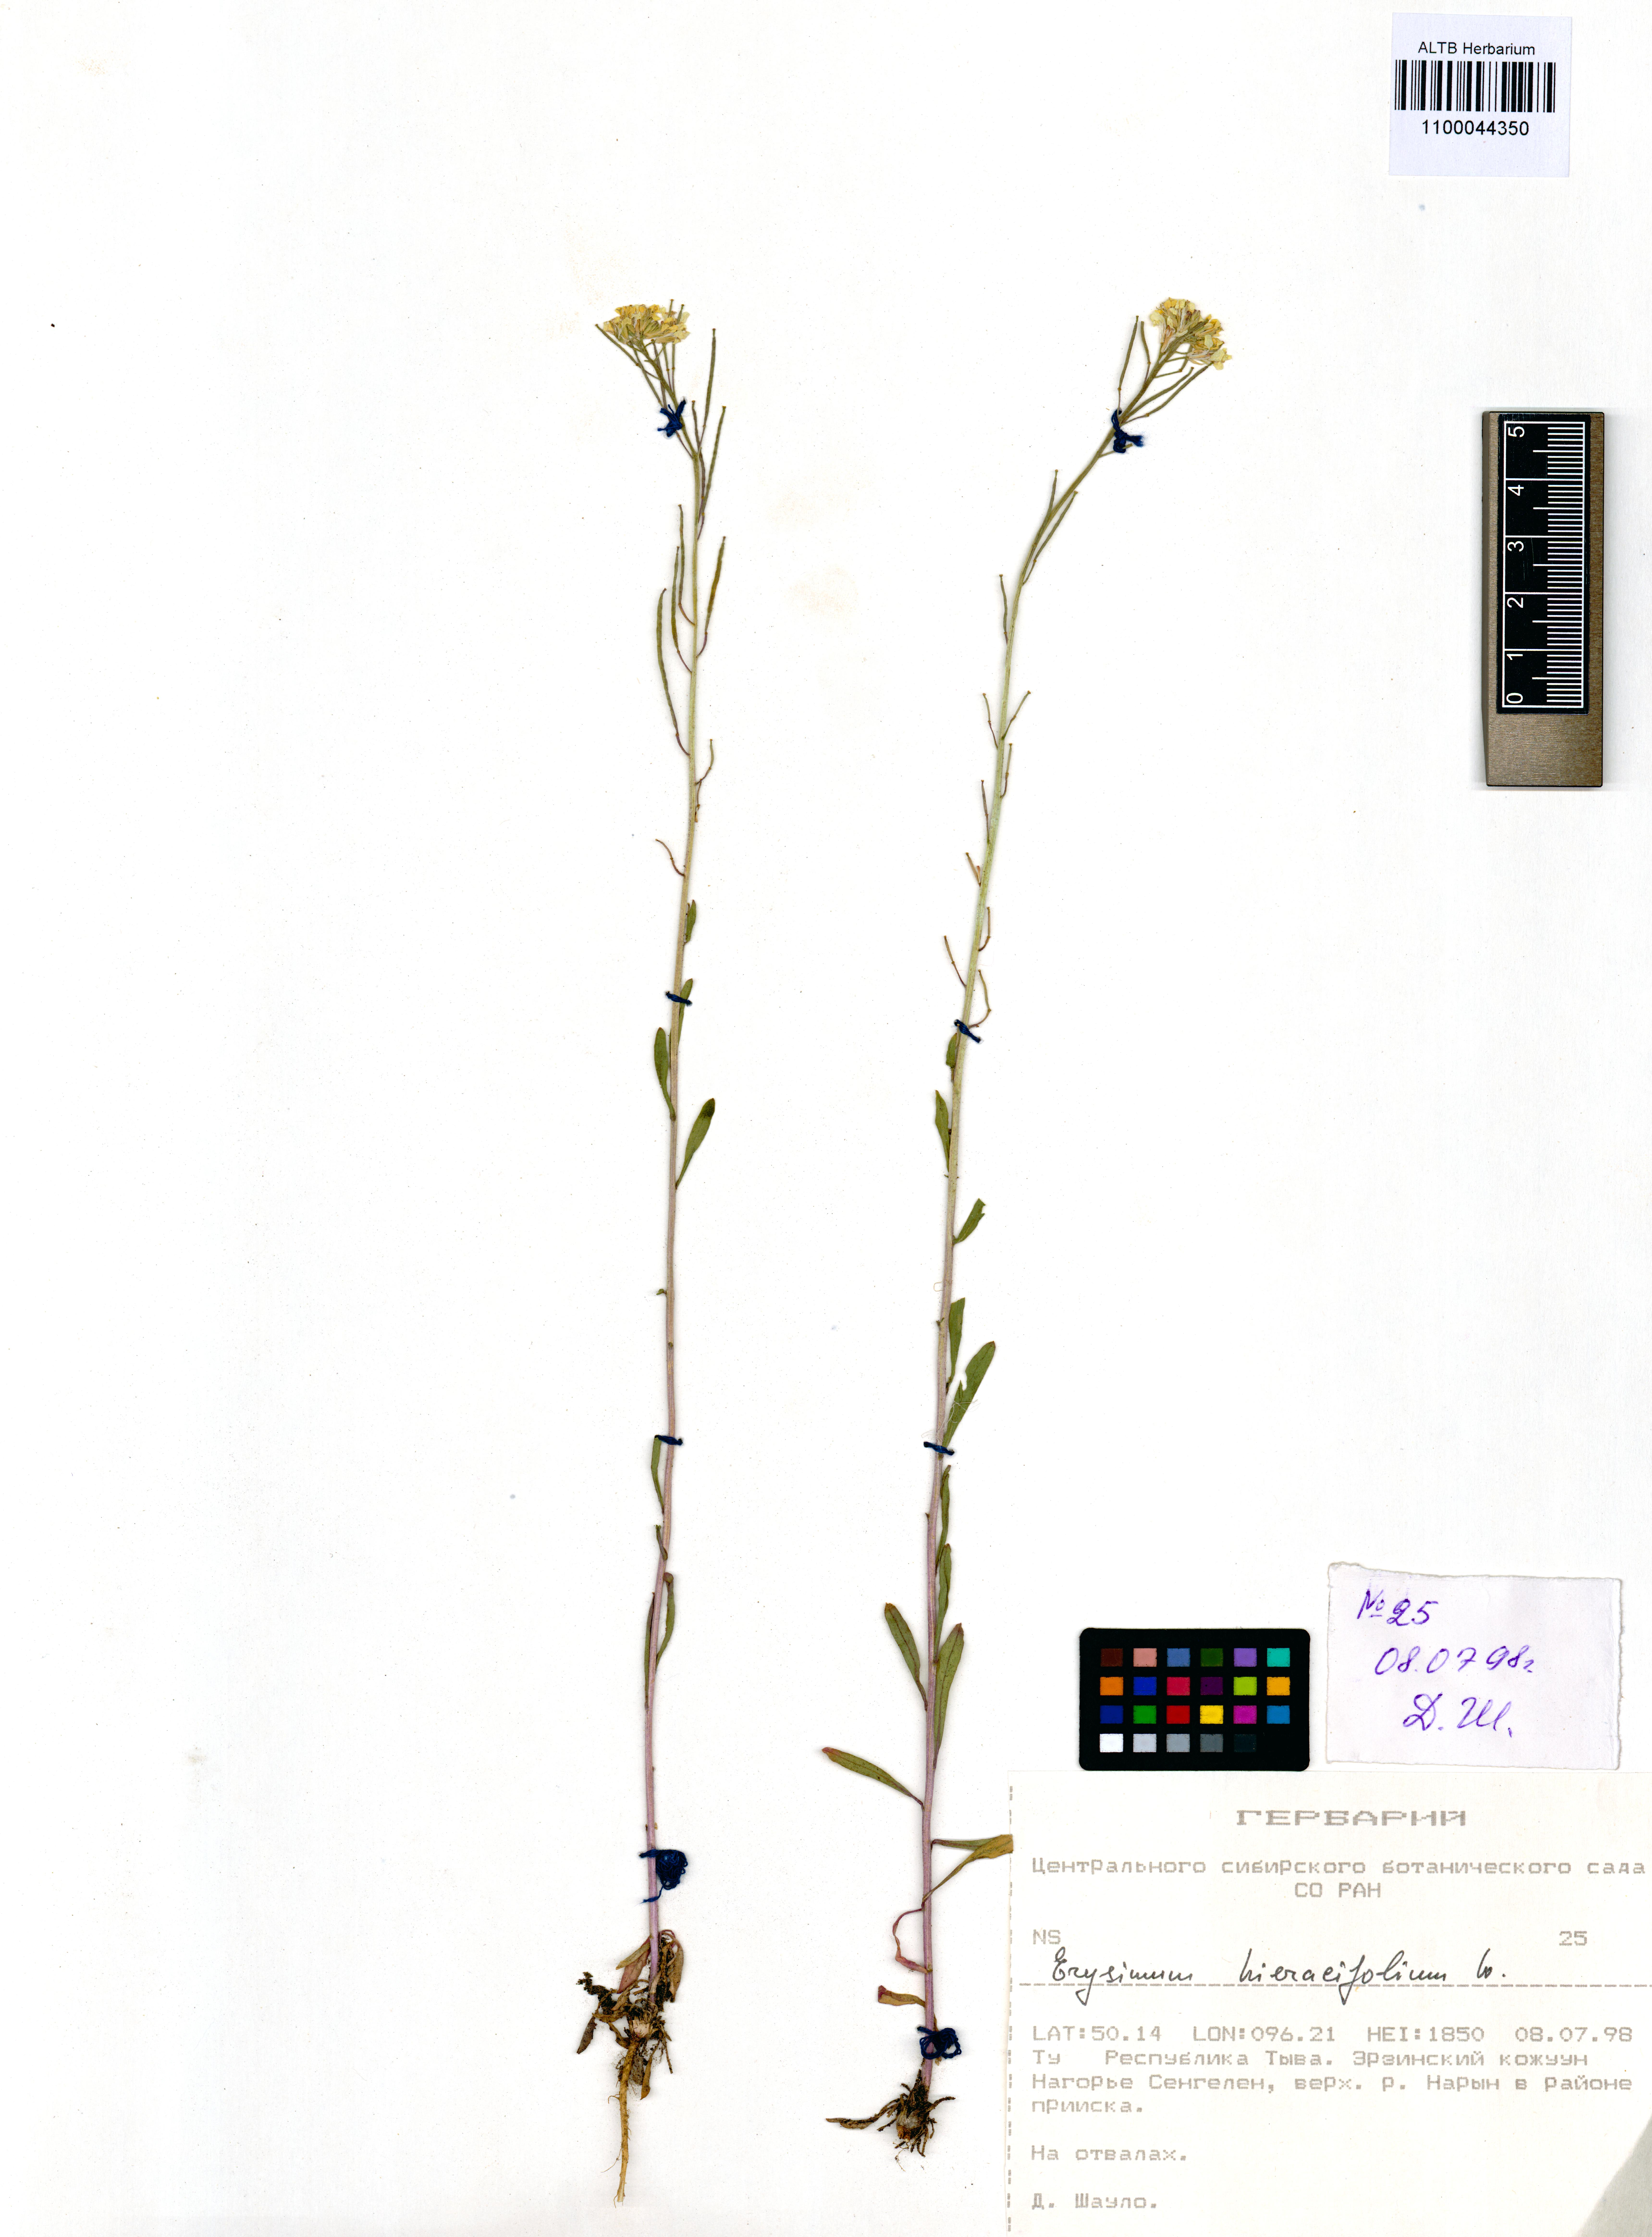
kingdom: Plantae
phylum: Tracheophyta
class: Magnoliopsida
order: Brassicales
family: Brassicaceae
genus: Erysimum
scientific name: Erysimum hieraciifolium
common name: European wallflower
